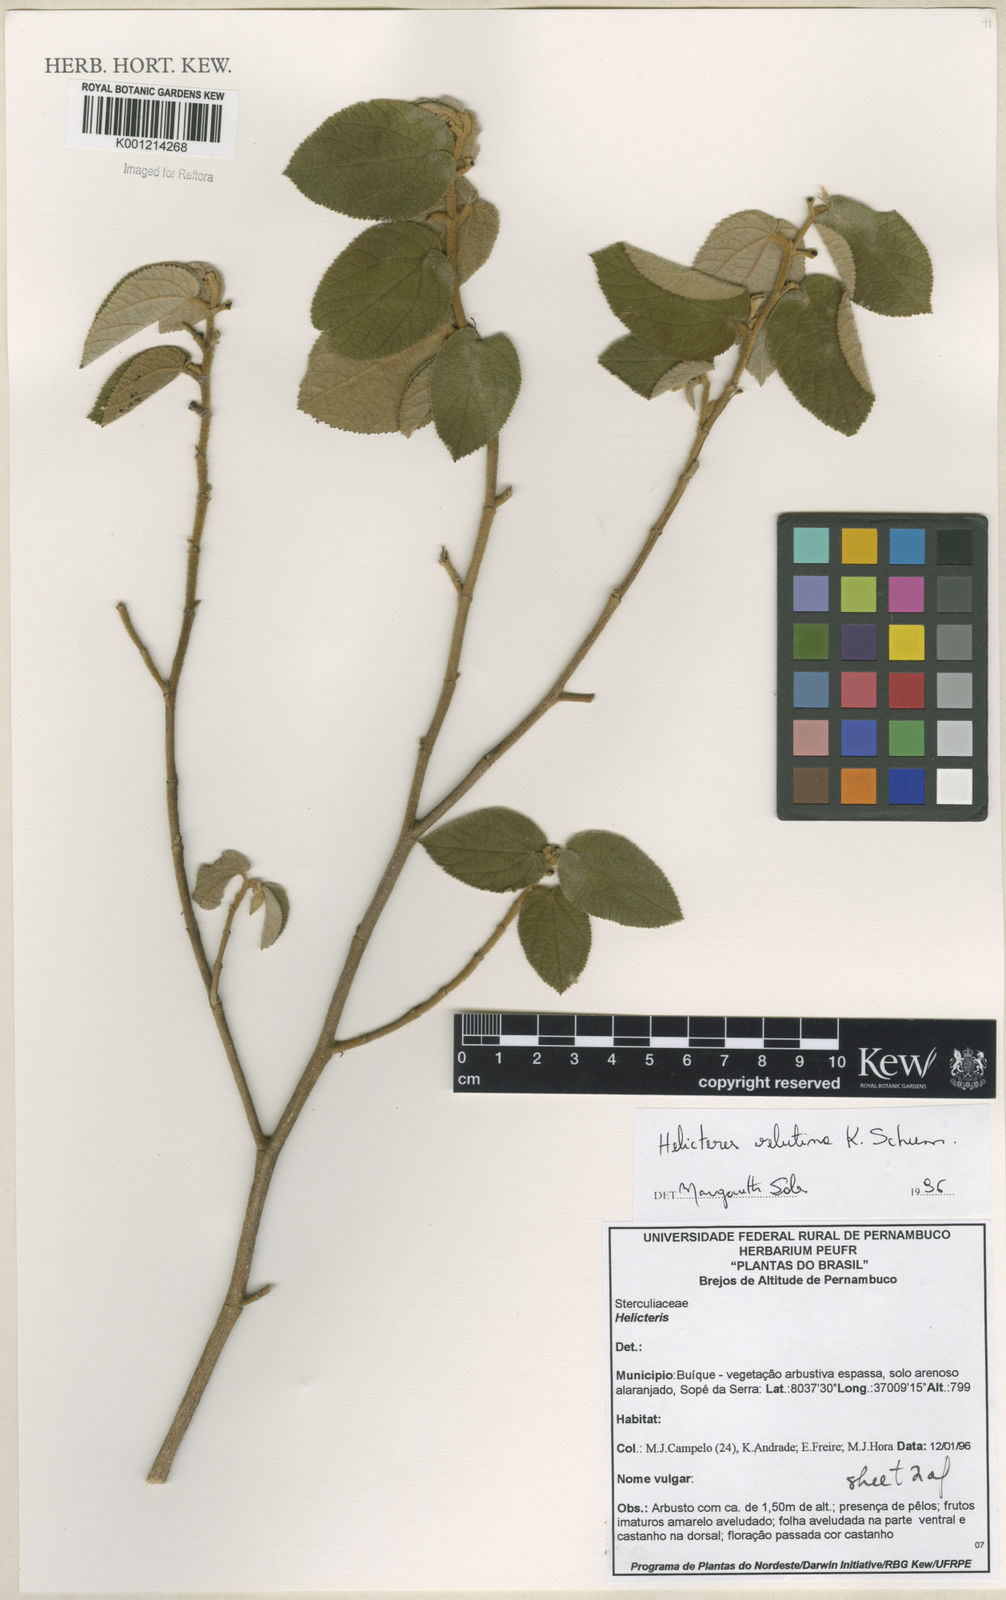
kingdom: Plantae
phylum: Tracheophyta
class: Magnoliopsida
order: Malvales
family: Malvaceae
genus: Helicteres
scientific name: Helicteres velutina
